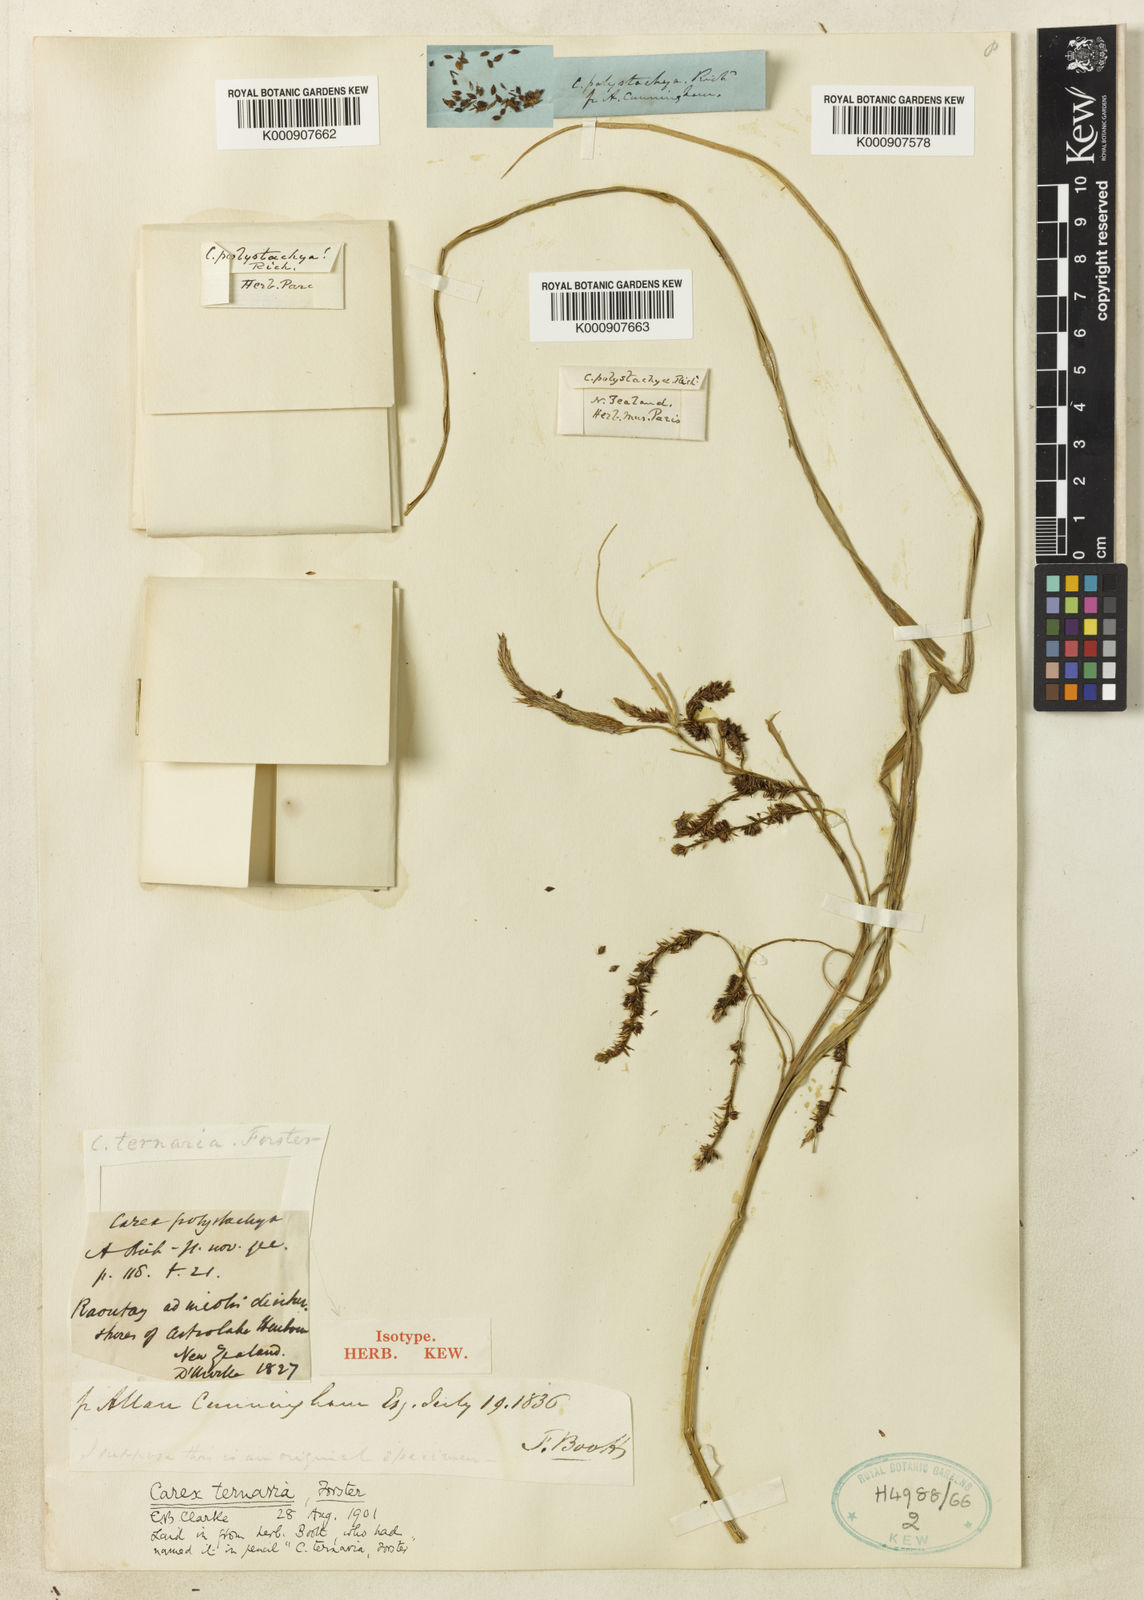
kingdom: Plantae
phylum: Tracheophyta
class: Liliopsida
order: Poales
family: Cyperaceae
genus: Carex
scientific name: Carex lessoniana
